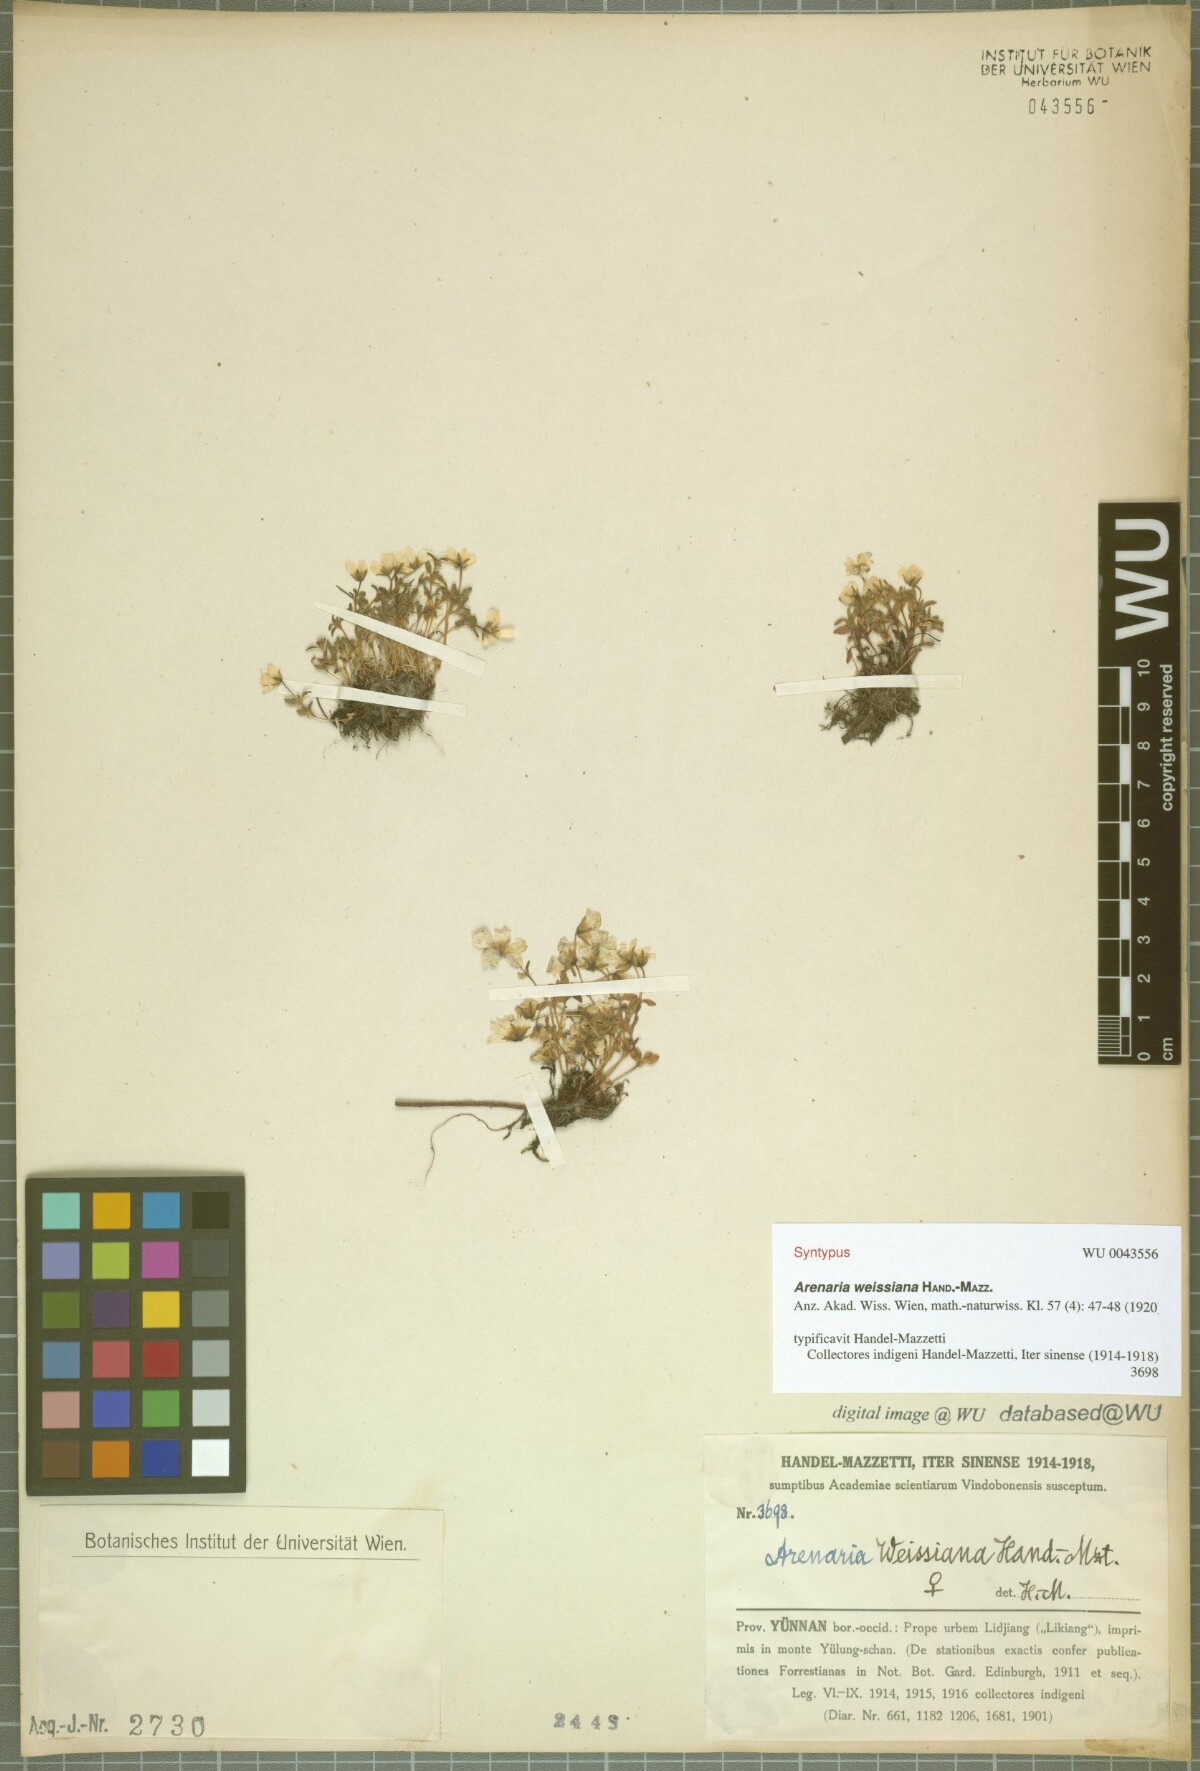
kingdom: Plantae
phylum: Tracheophyta
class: Magnoliopsida
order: Caryophyllales
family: Caryophyllaceae
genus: Odontostemma
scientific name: Odontostemma weissianum
